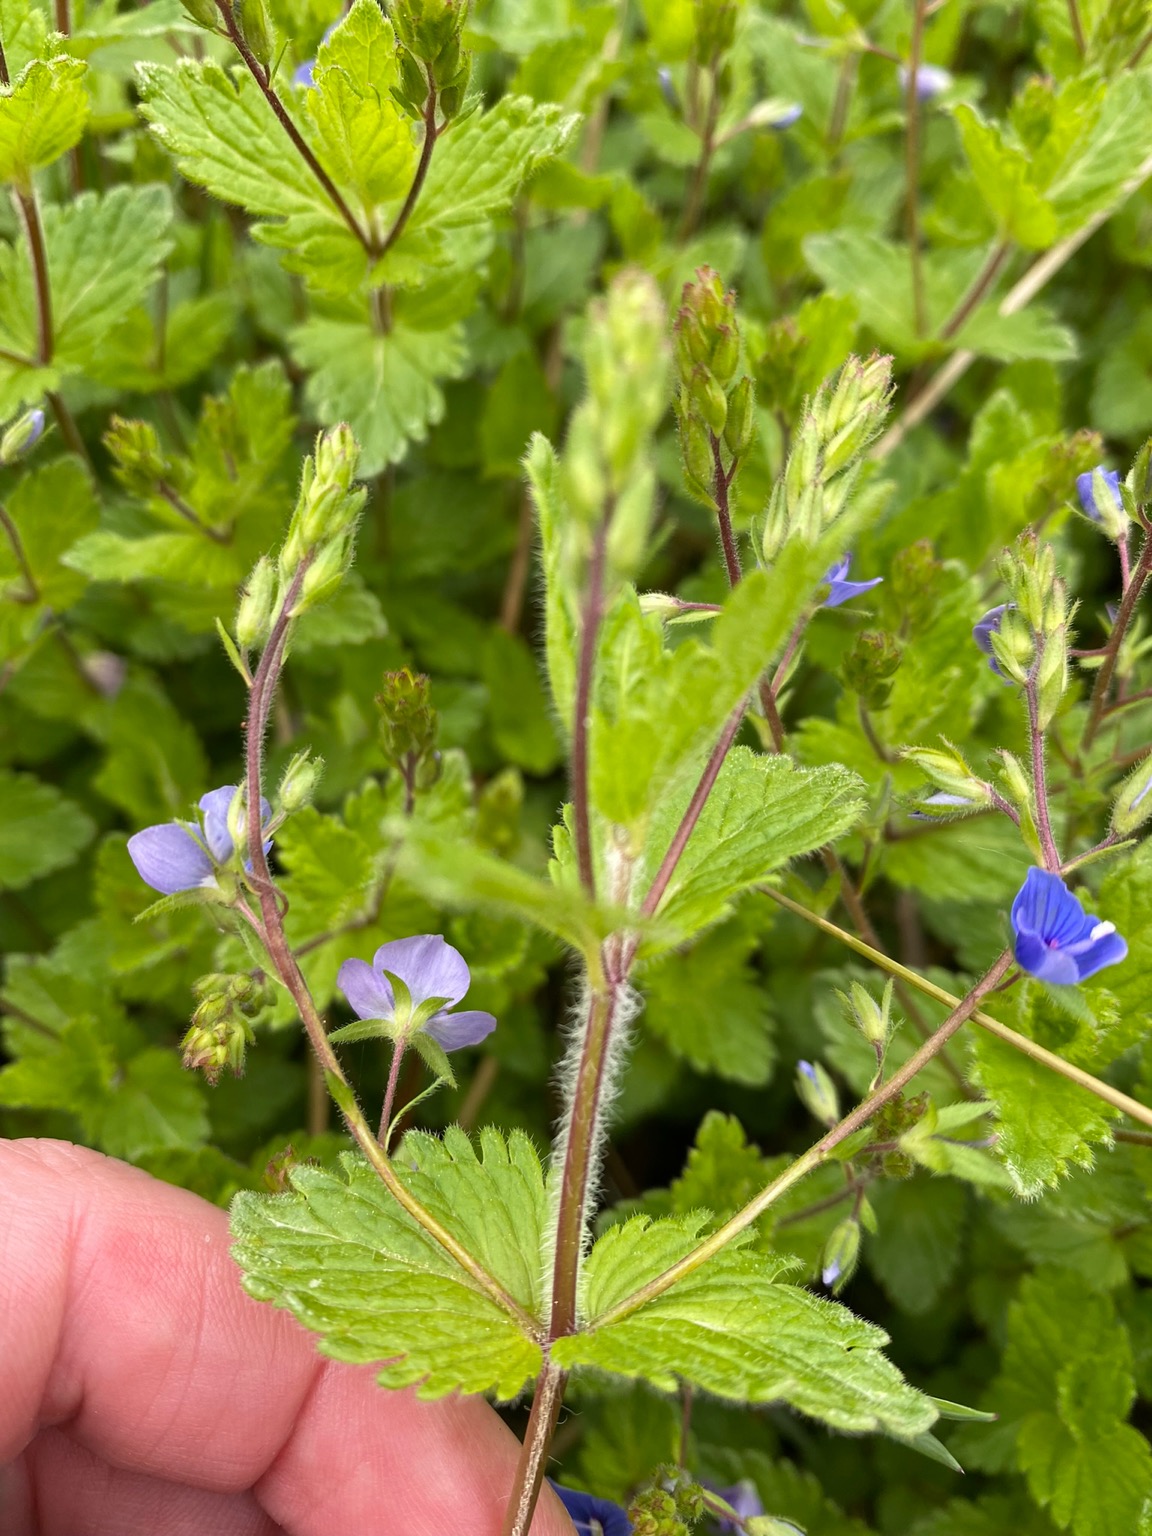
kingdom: Plantae
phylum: Tracheophyta
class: Magnoliopsida
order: Lamiales
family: Plantaginaceae
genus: Veronica
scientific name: Veronica chamaedrys
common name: Tveskægget ærenpris
